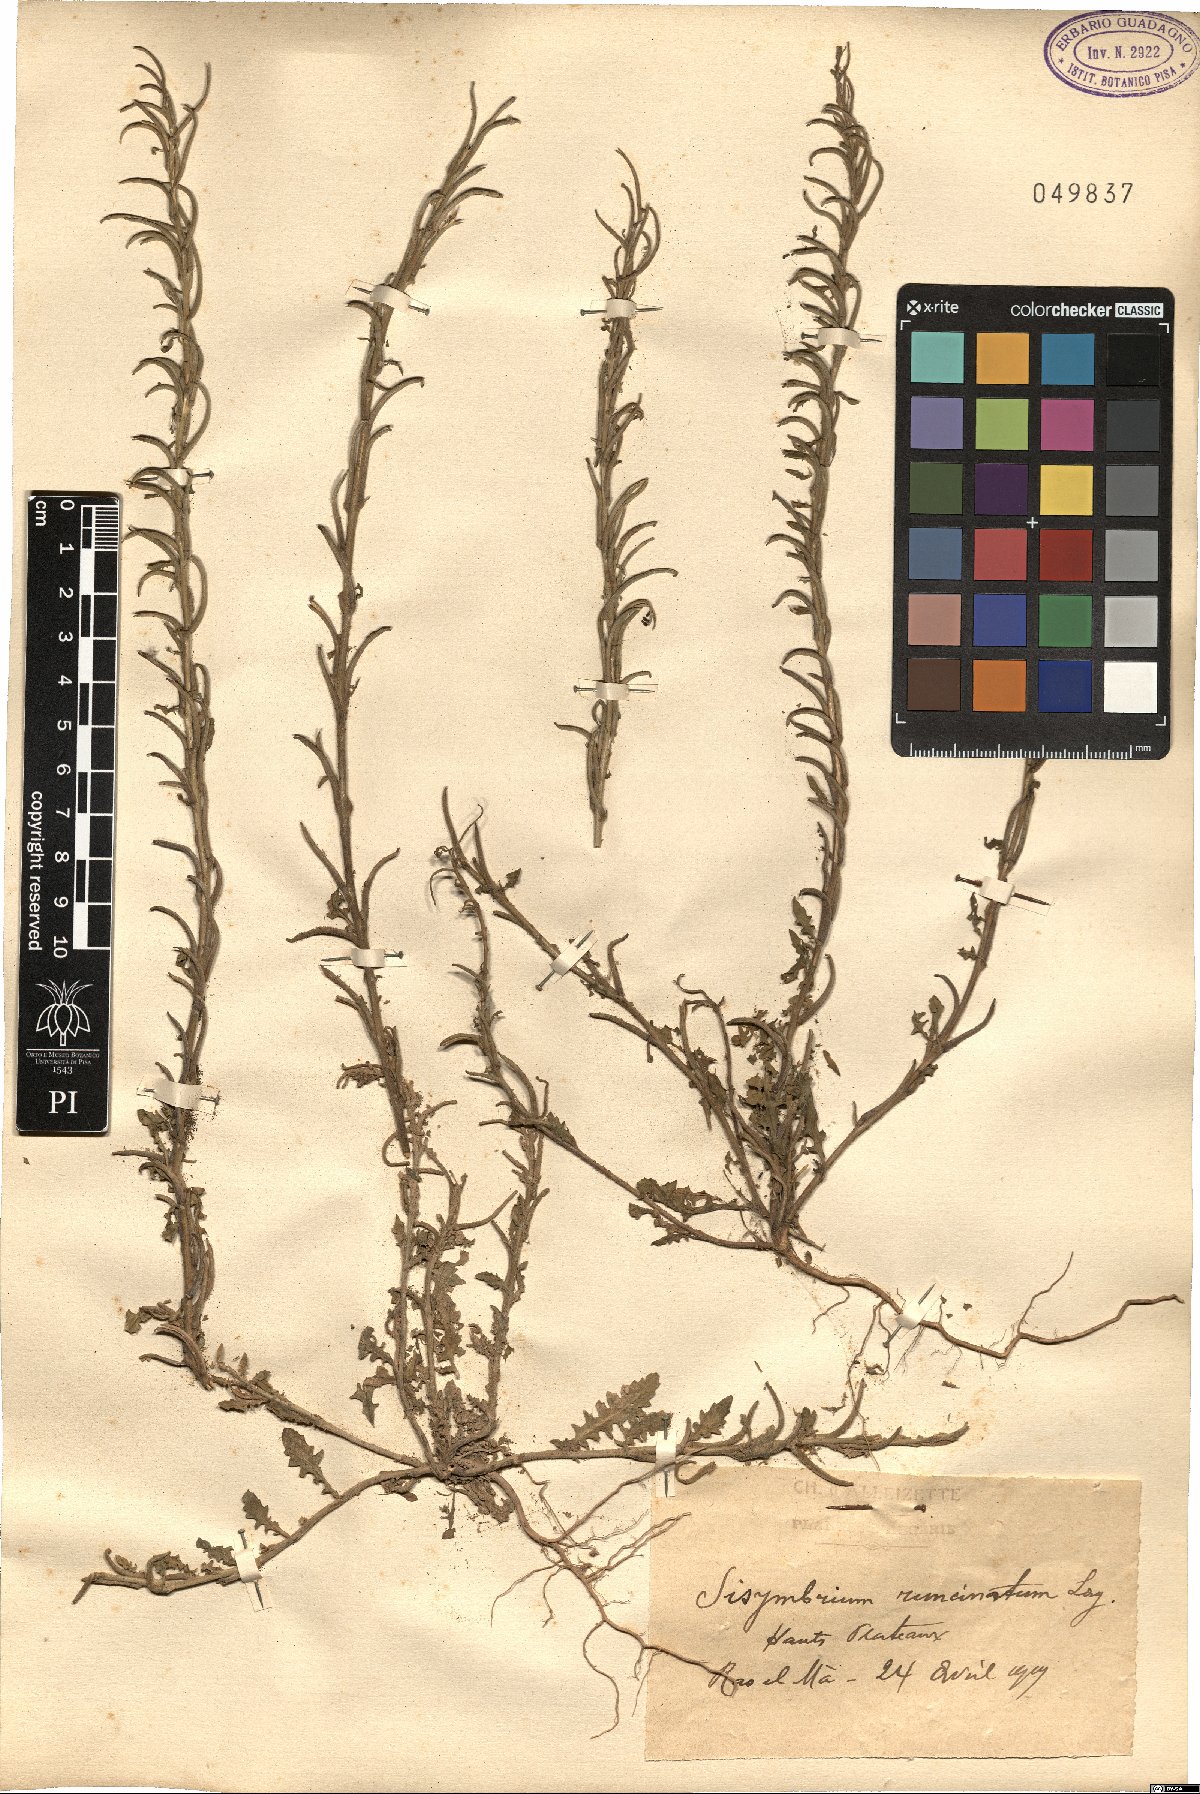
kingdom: Plantae
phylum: Tracheophyta
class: Magnoliopsida
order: Brassicales
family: Brassicaceae
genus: Sisymbrium
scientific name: Sisymbrium runcinatum
